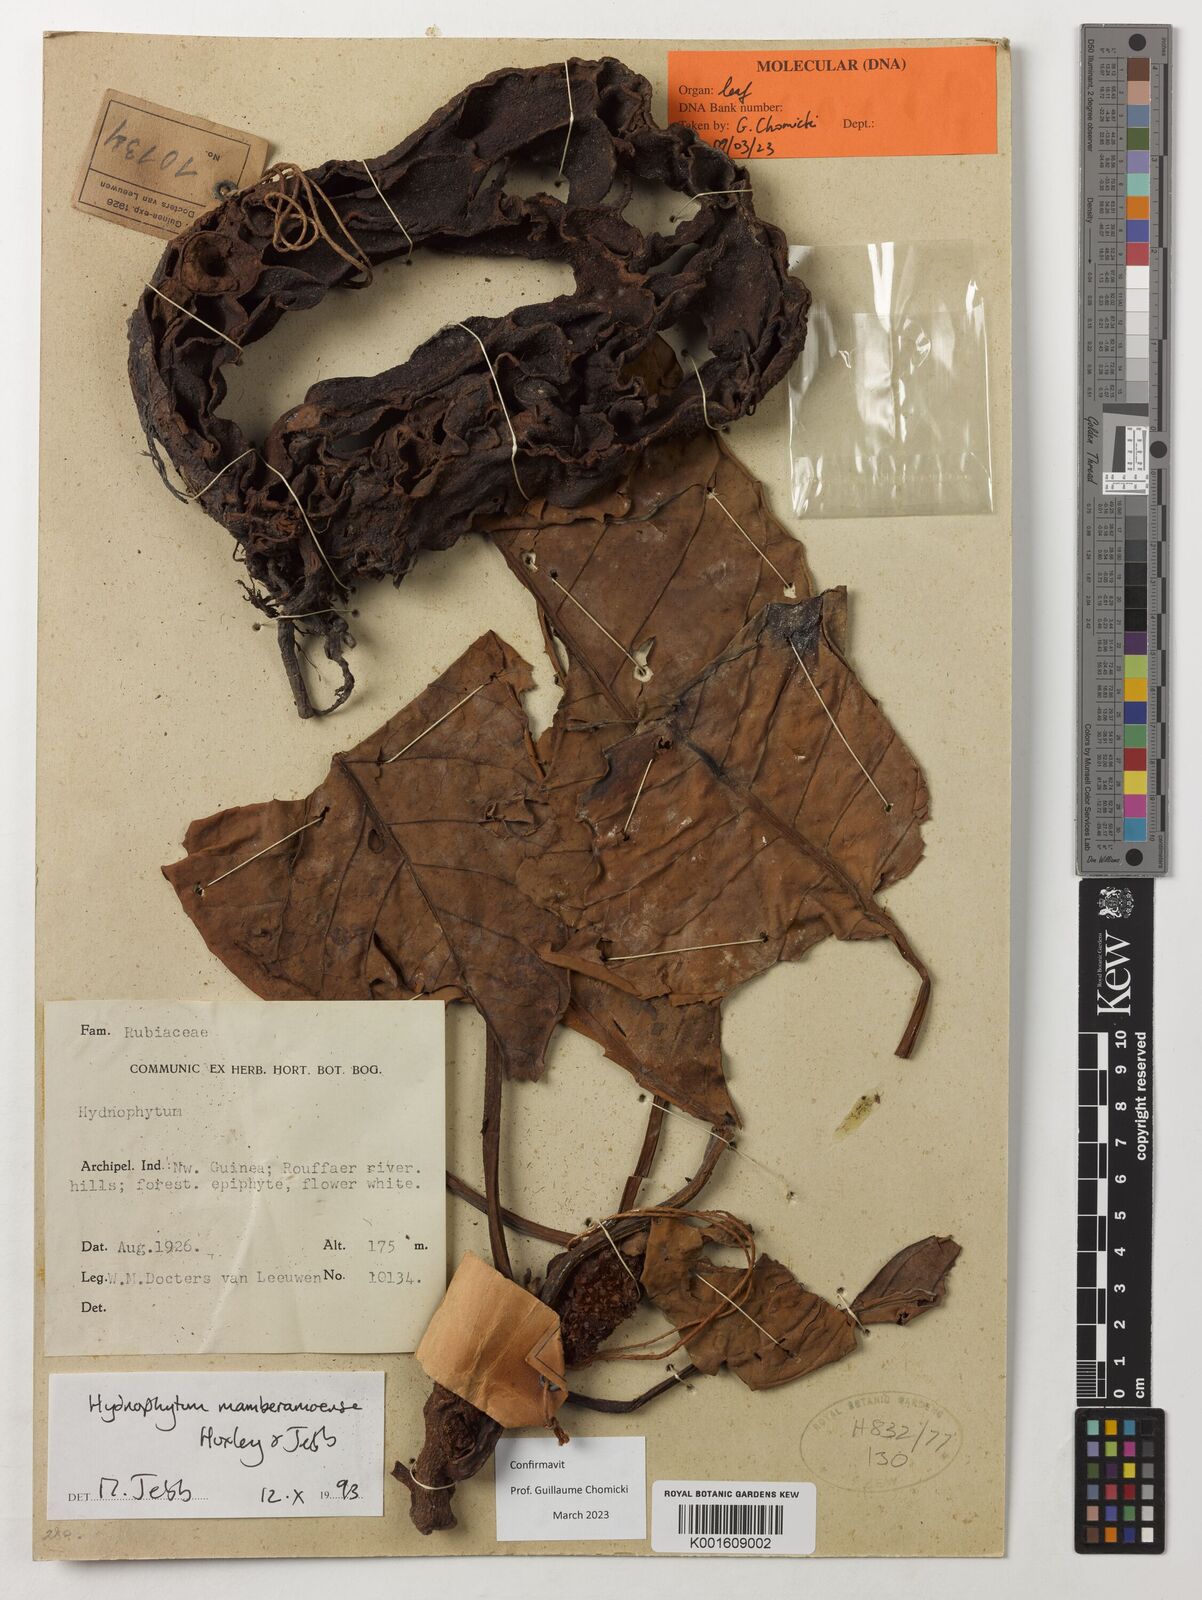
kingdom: Plantae
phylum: Tracheophyta
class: Magnoliopsida
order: Gentianales
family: Rubiaceae
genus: Hydnophytum
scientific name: Hydnophytum mamberamoense
